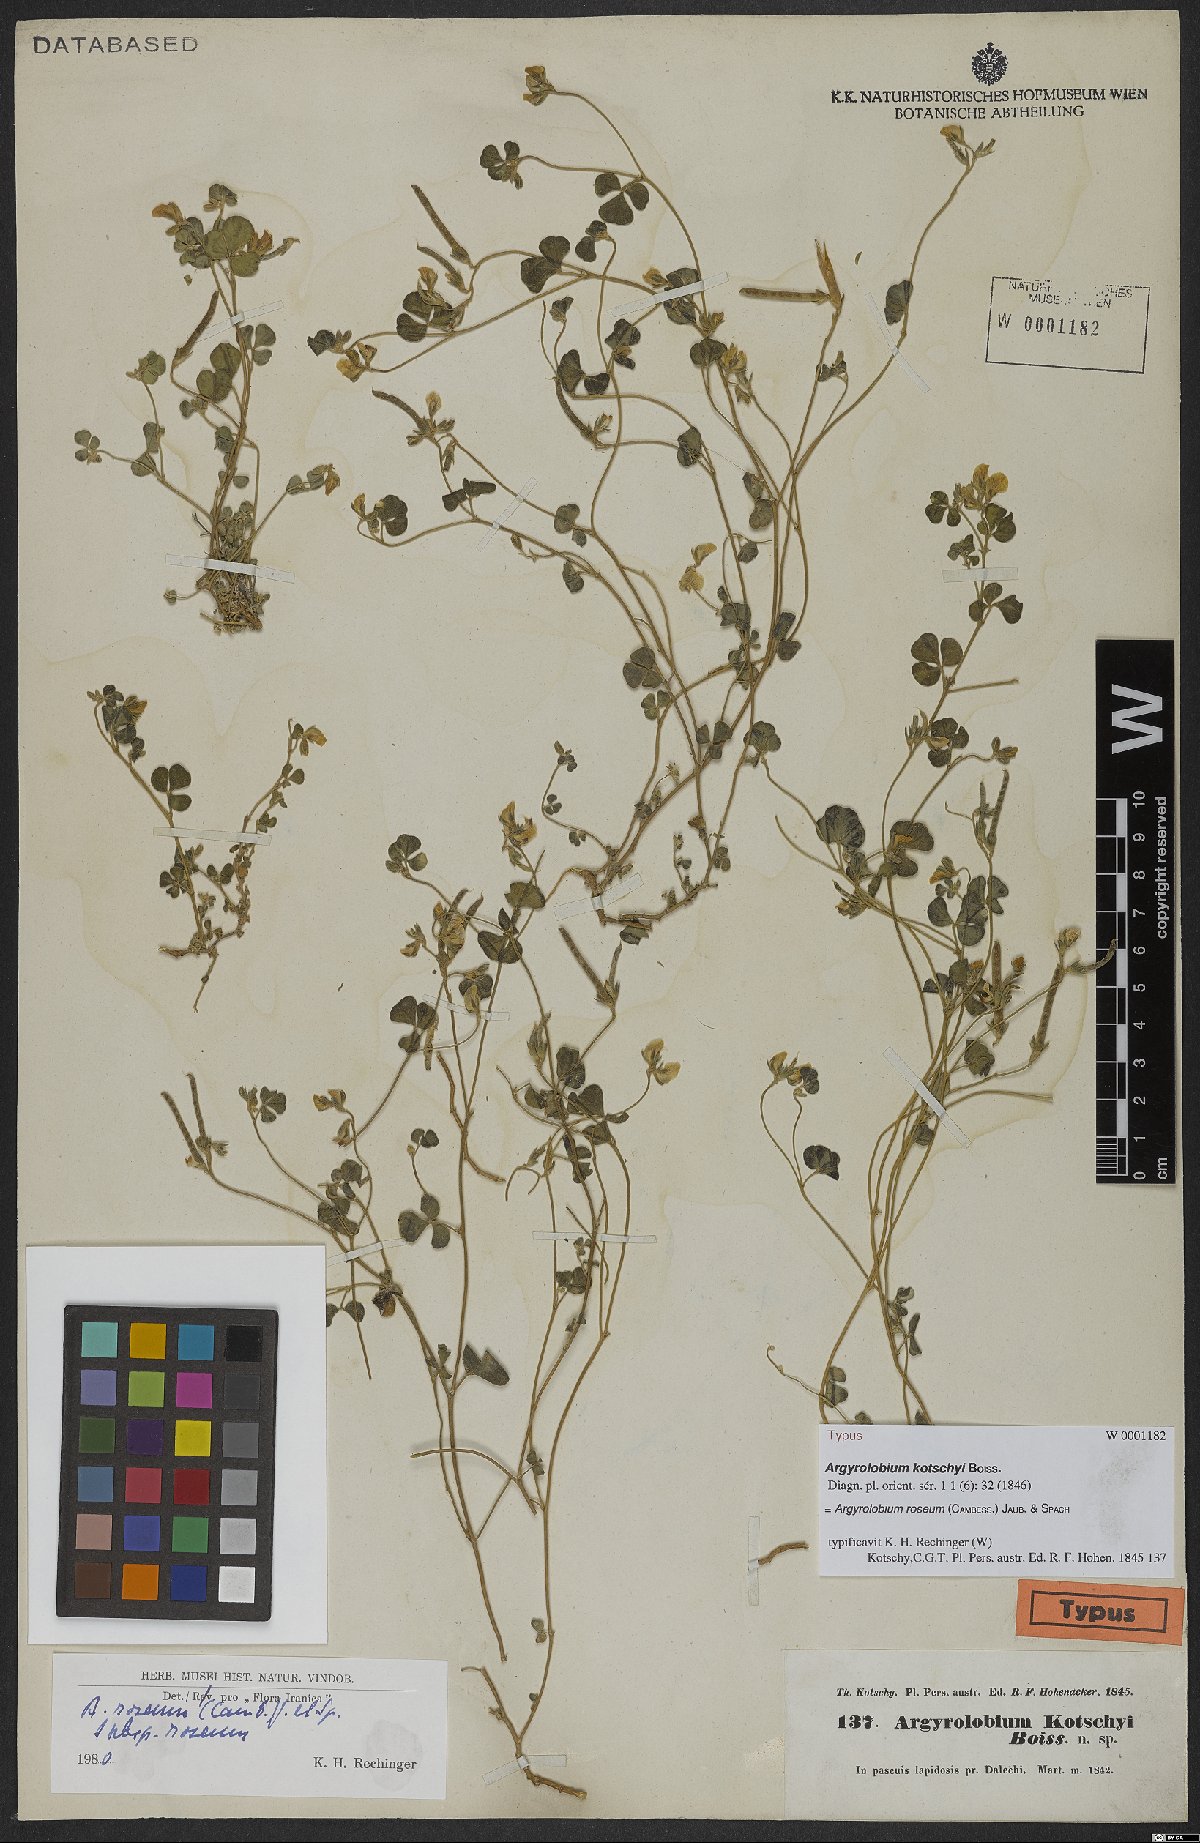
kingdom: Plantae
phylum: Tracheophyta
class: Magnoliopsida
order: Fabales
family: Fabaceae
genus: Argyrolobium
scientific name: Argyrolobium roseum
